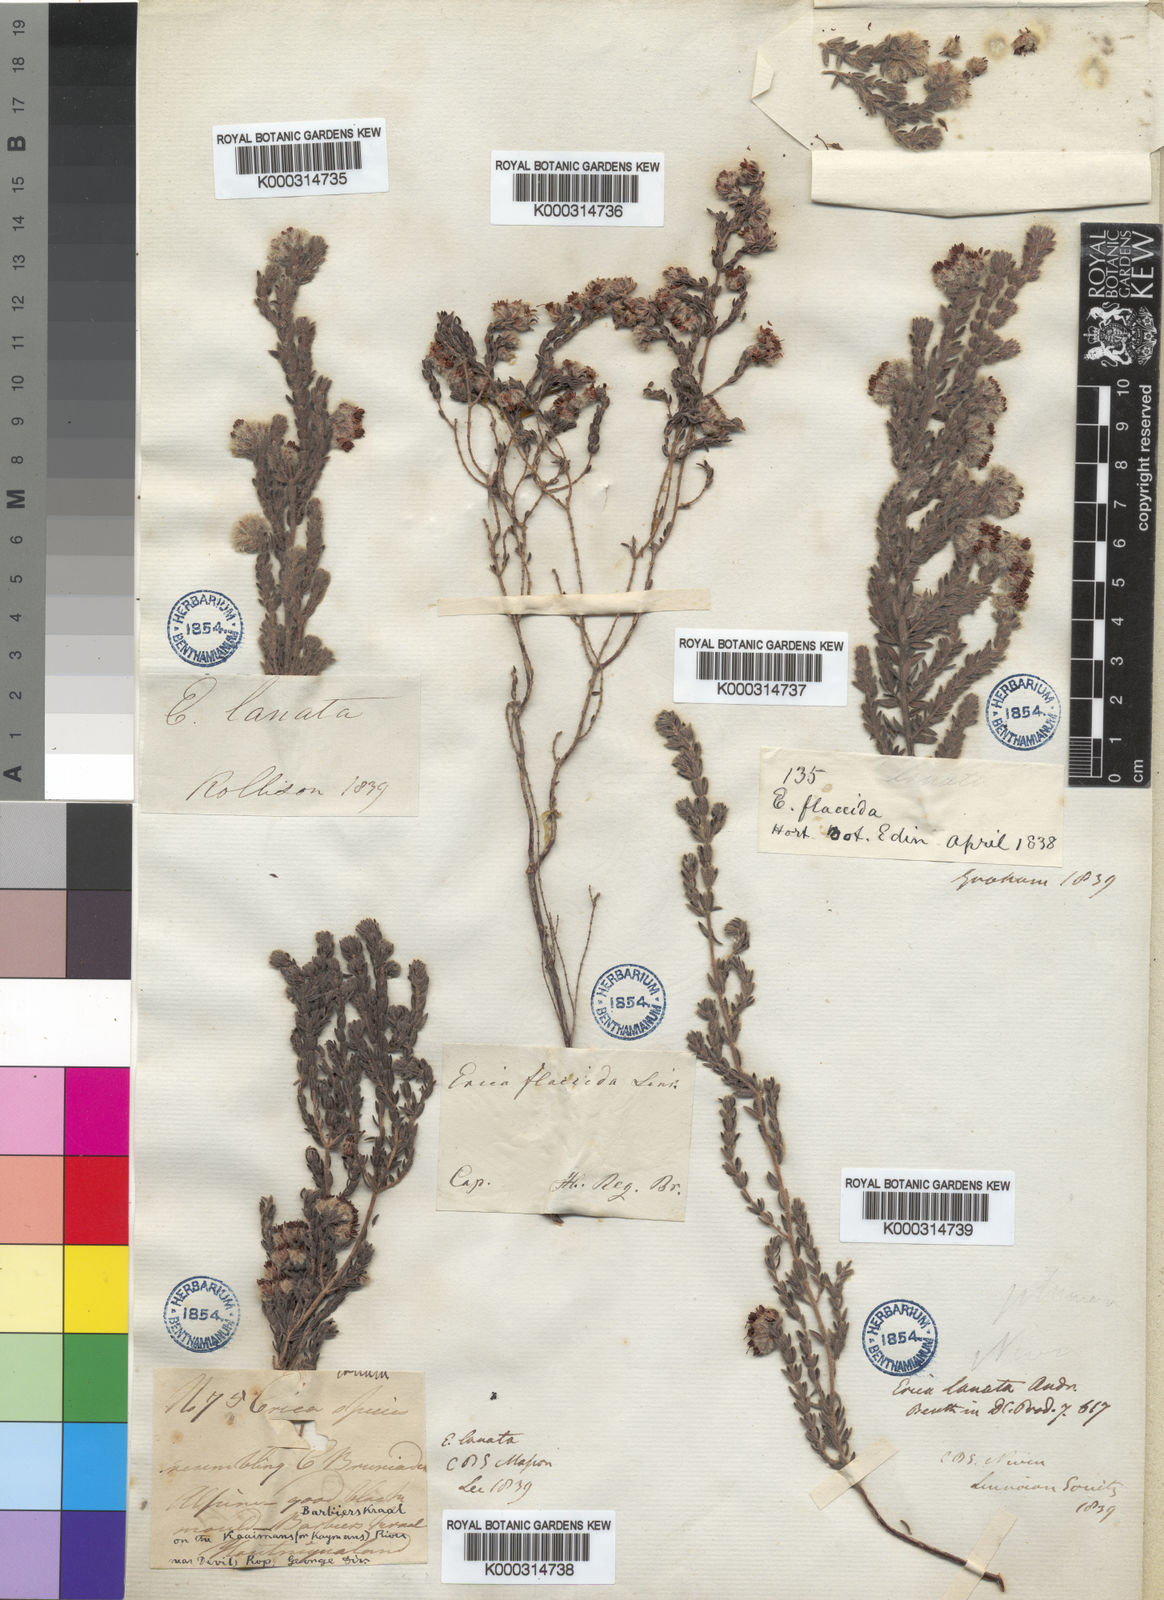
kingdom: Plantae
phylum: Tracheophyta
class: Magnoliopsida
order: Ericales
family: Ericaceae
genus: Erica
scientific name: Erica
